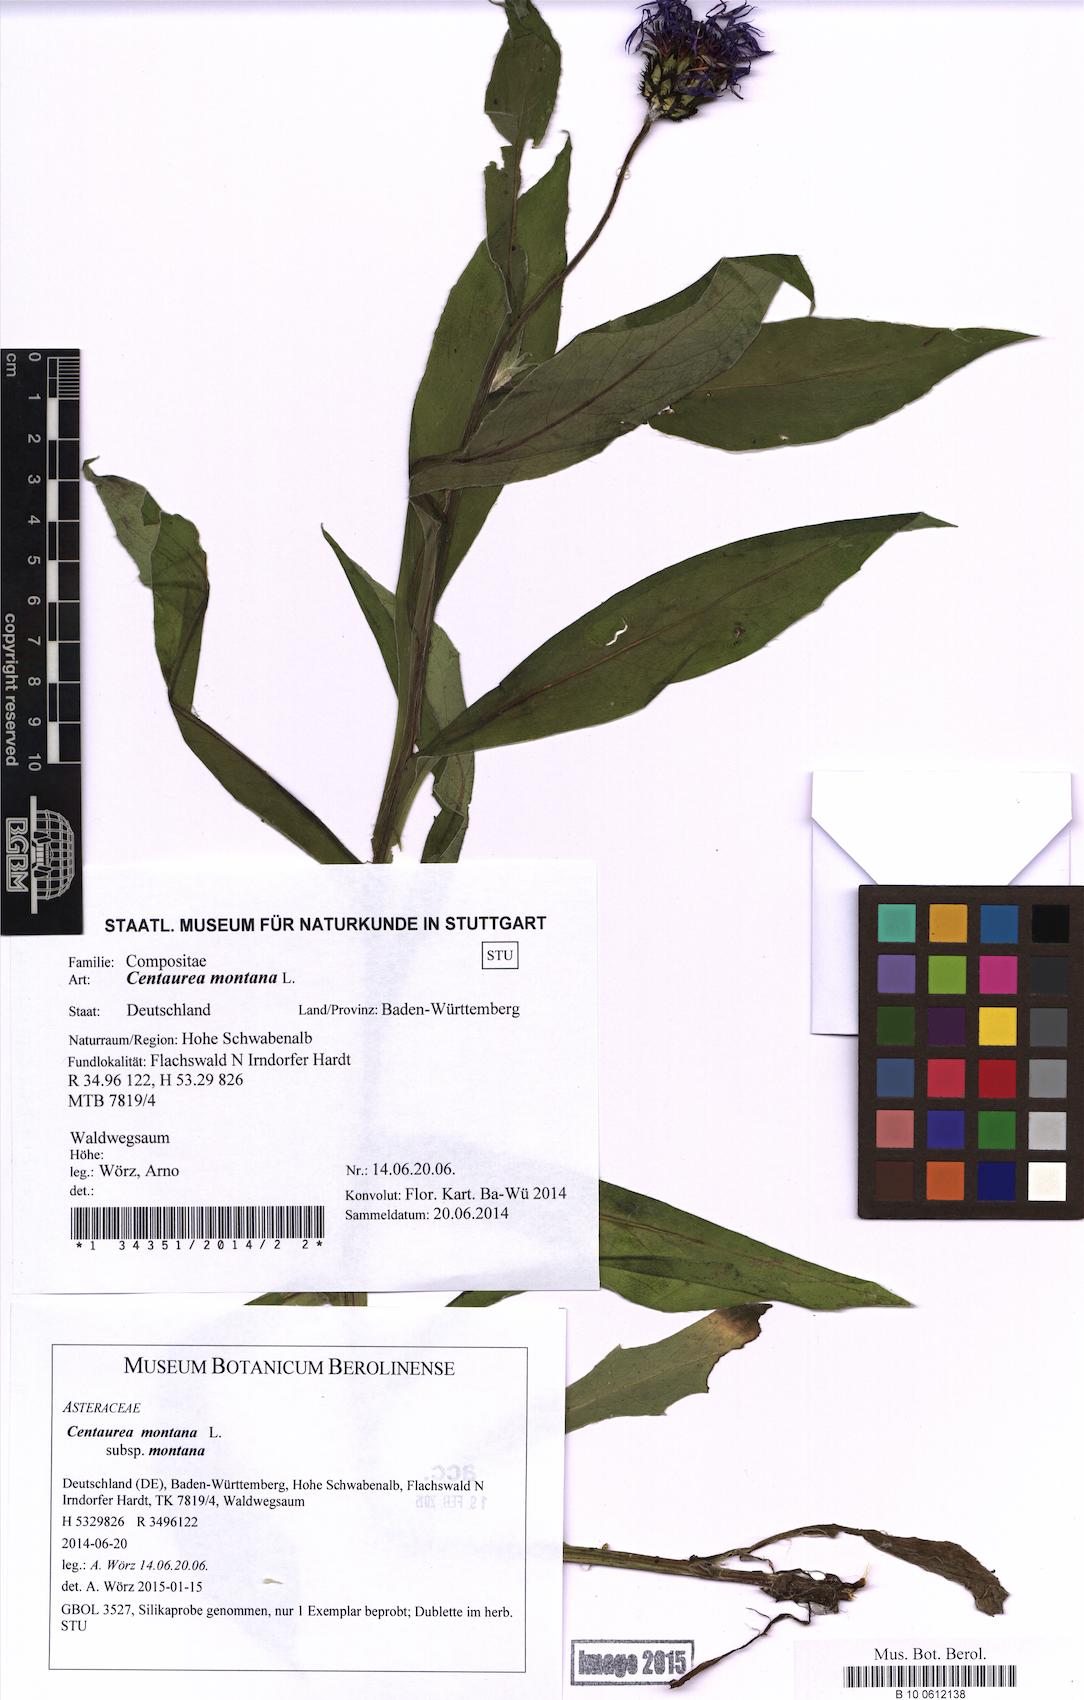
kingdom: Plantae
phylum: Tracheophyta
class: Magnoliopsida
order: Asterales
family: Asteraceae
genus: Centaurea
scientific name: Centaurea montana
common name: Perennial cornflower
